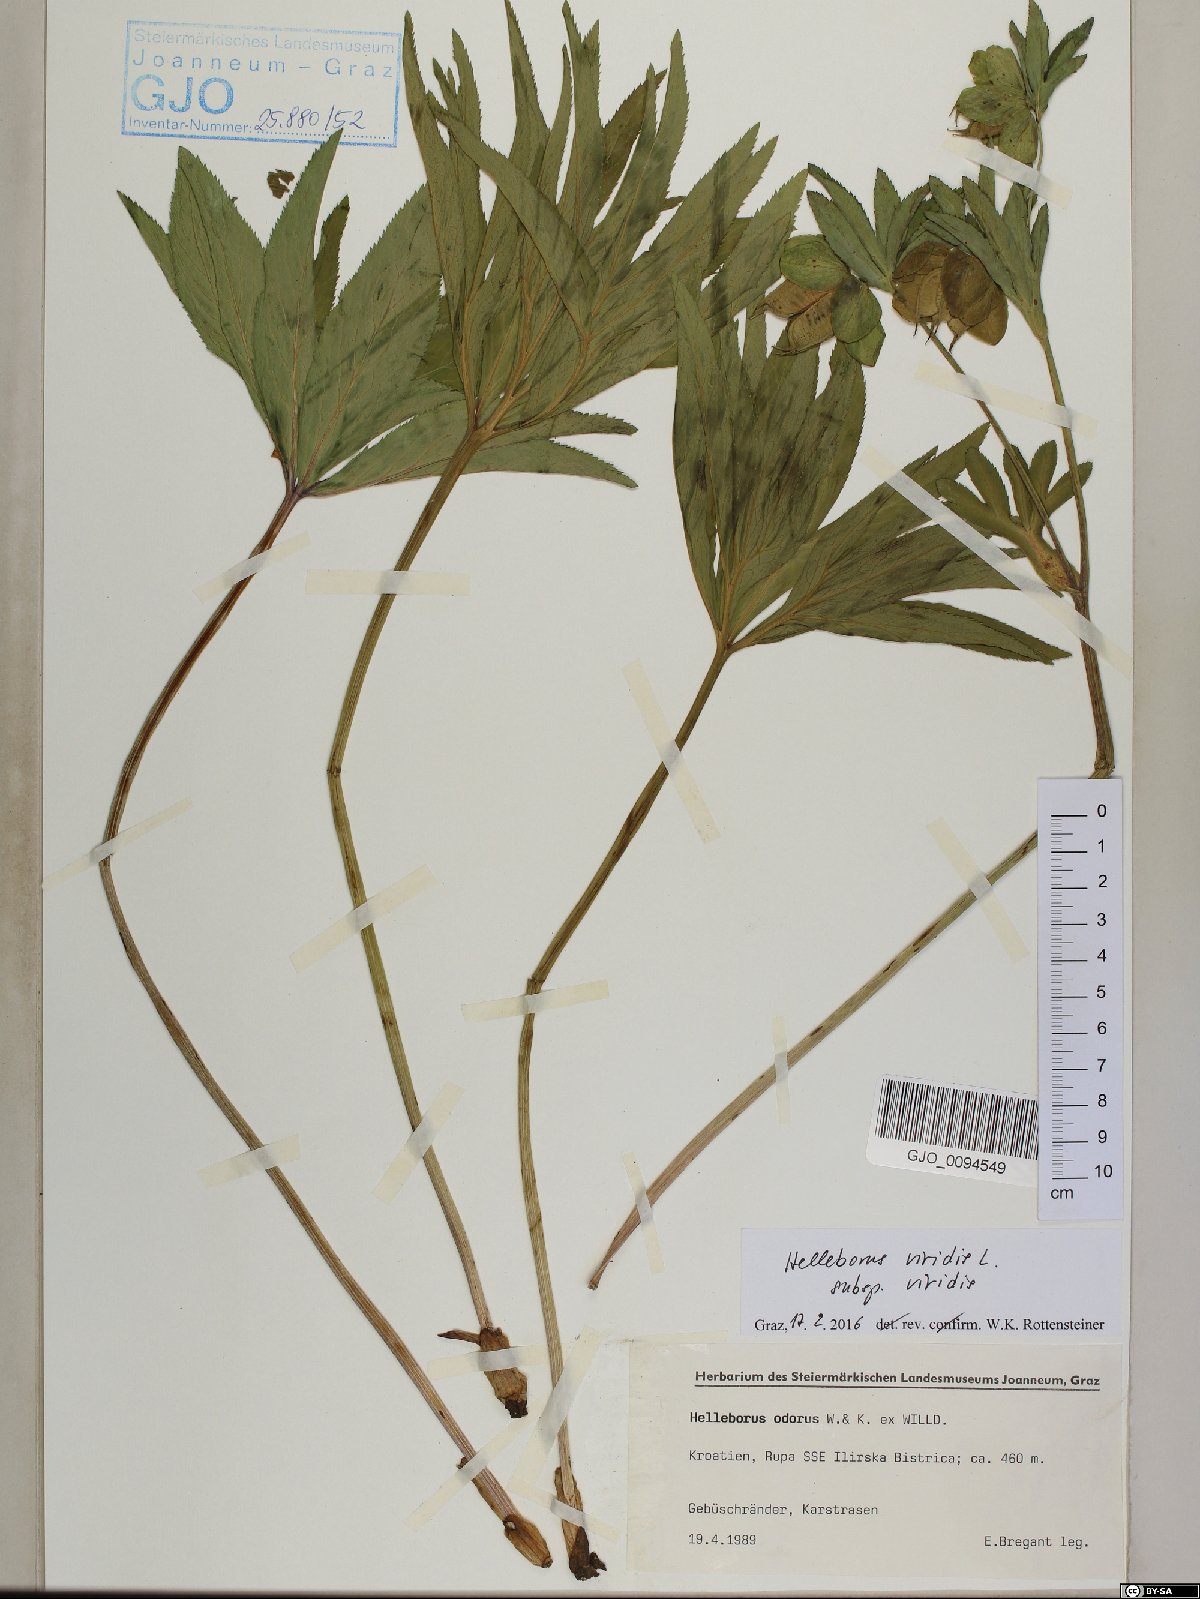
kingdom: Plantae
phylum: Tracheophyta
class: Magnoliopsida
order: Ranunculales
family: Ranunculaceae
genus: Helleborus
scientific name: Helleborus viridis
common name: Green hellebore
